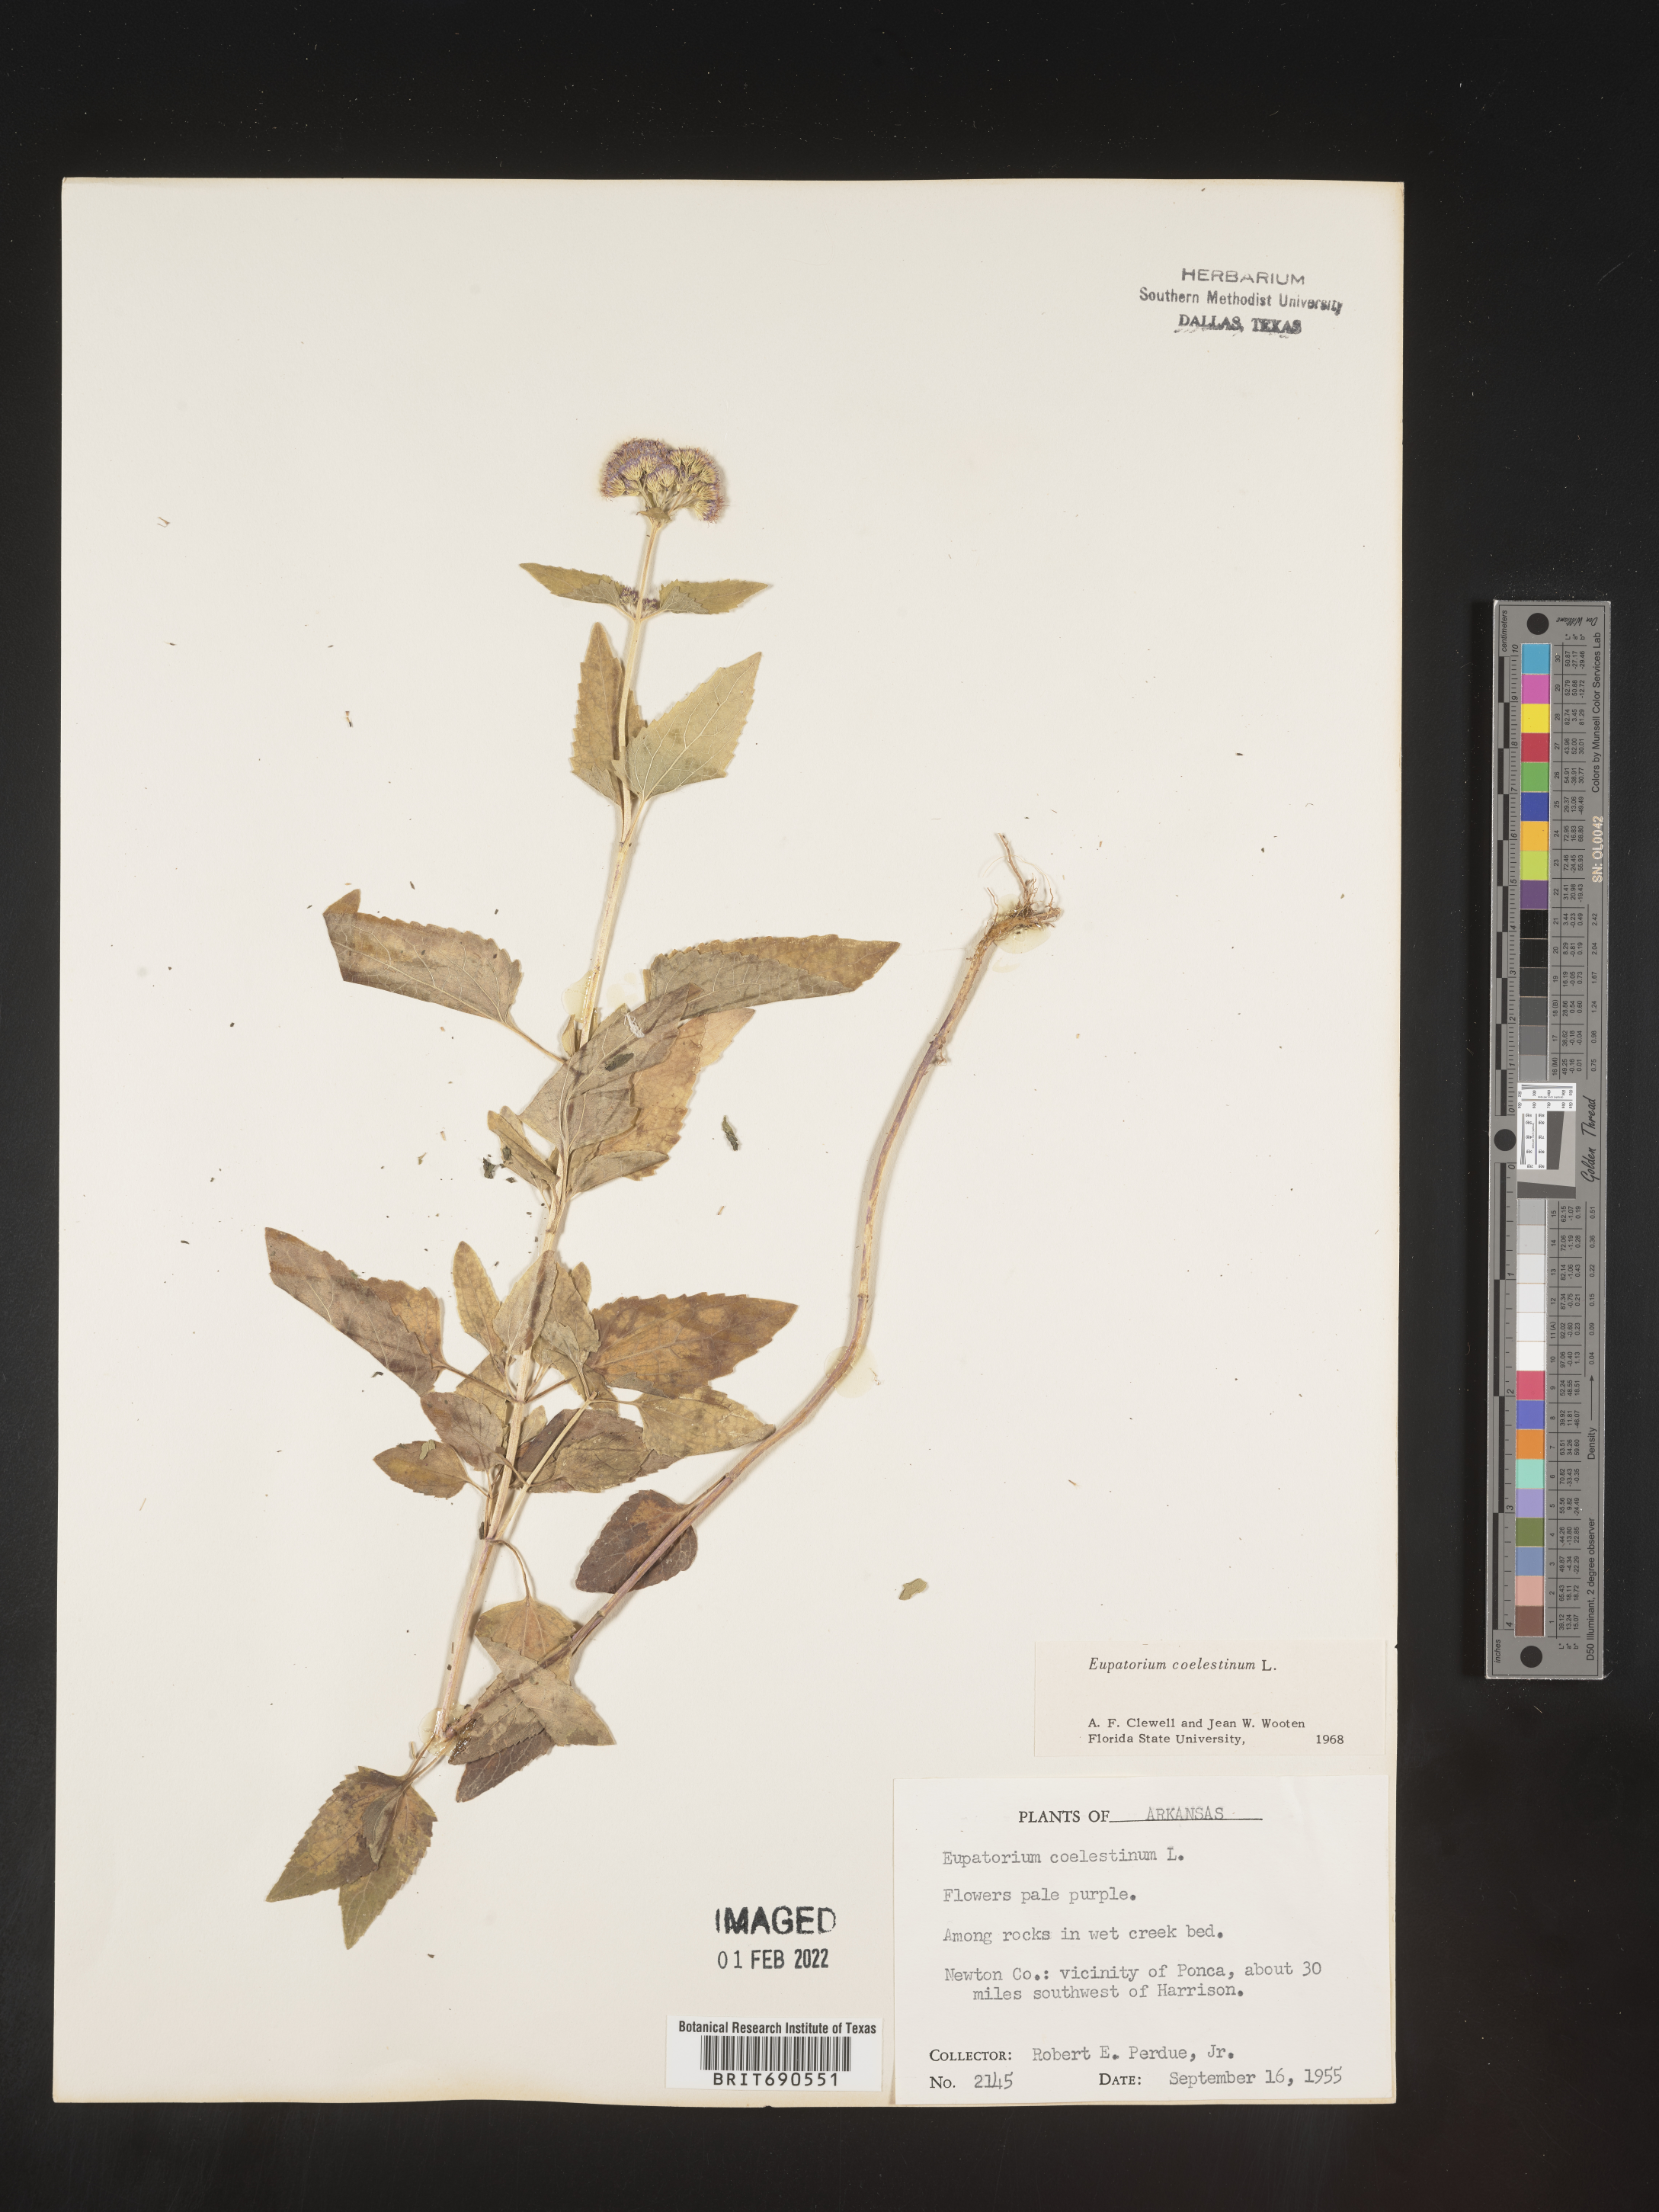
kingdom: Plantae
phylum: Tracheophyta
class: Magnoliopsida
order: Asterales
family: Asteraceae
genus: Conoclinium
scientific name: Conoclinium coelestinum
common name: Blue mistflower
